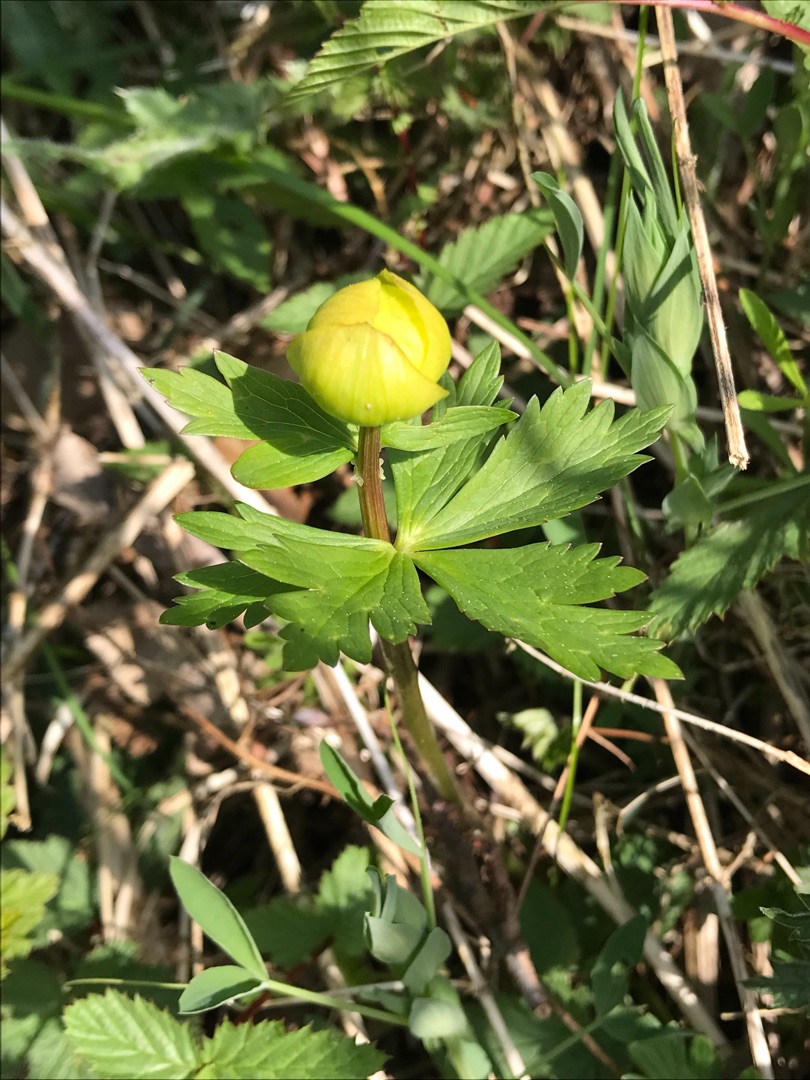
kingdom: Plantae
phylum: Tracheophyta
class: Magnoliopsida
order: Ranunculales
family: Ranunculaceae
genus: Trollius
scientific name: Trollius europaeus
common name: Engblomme
